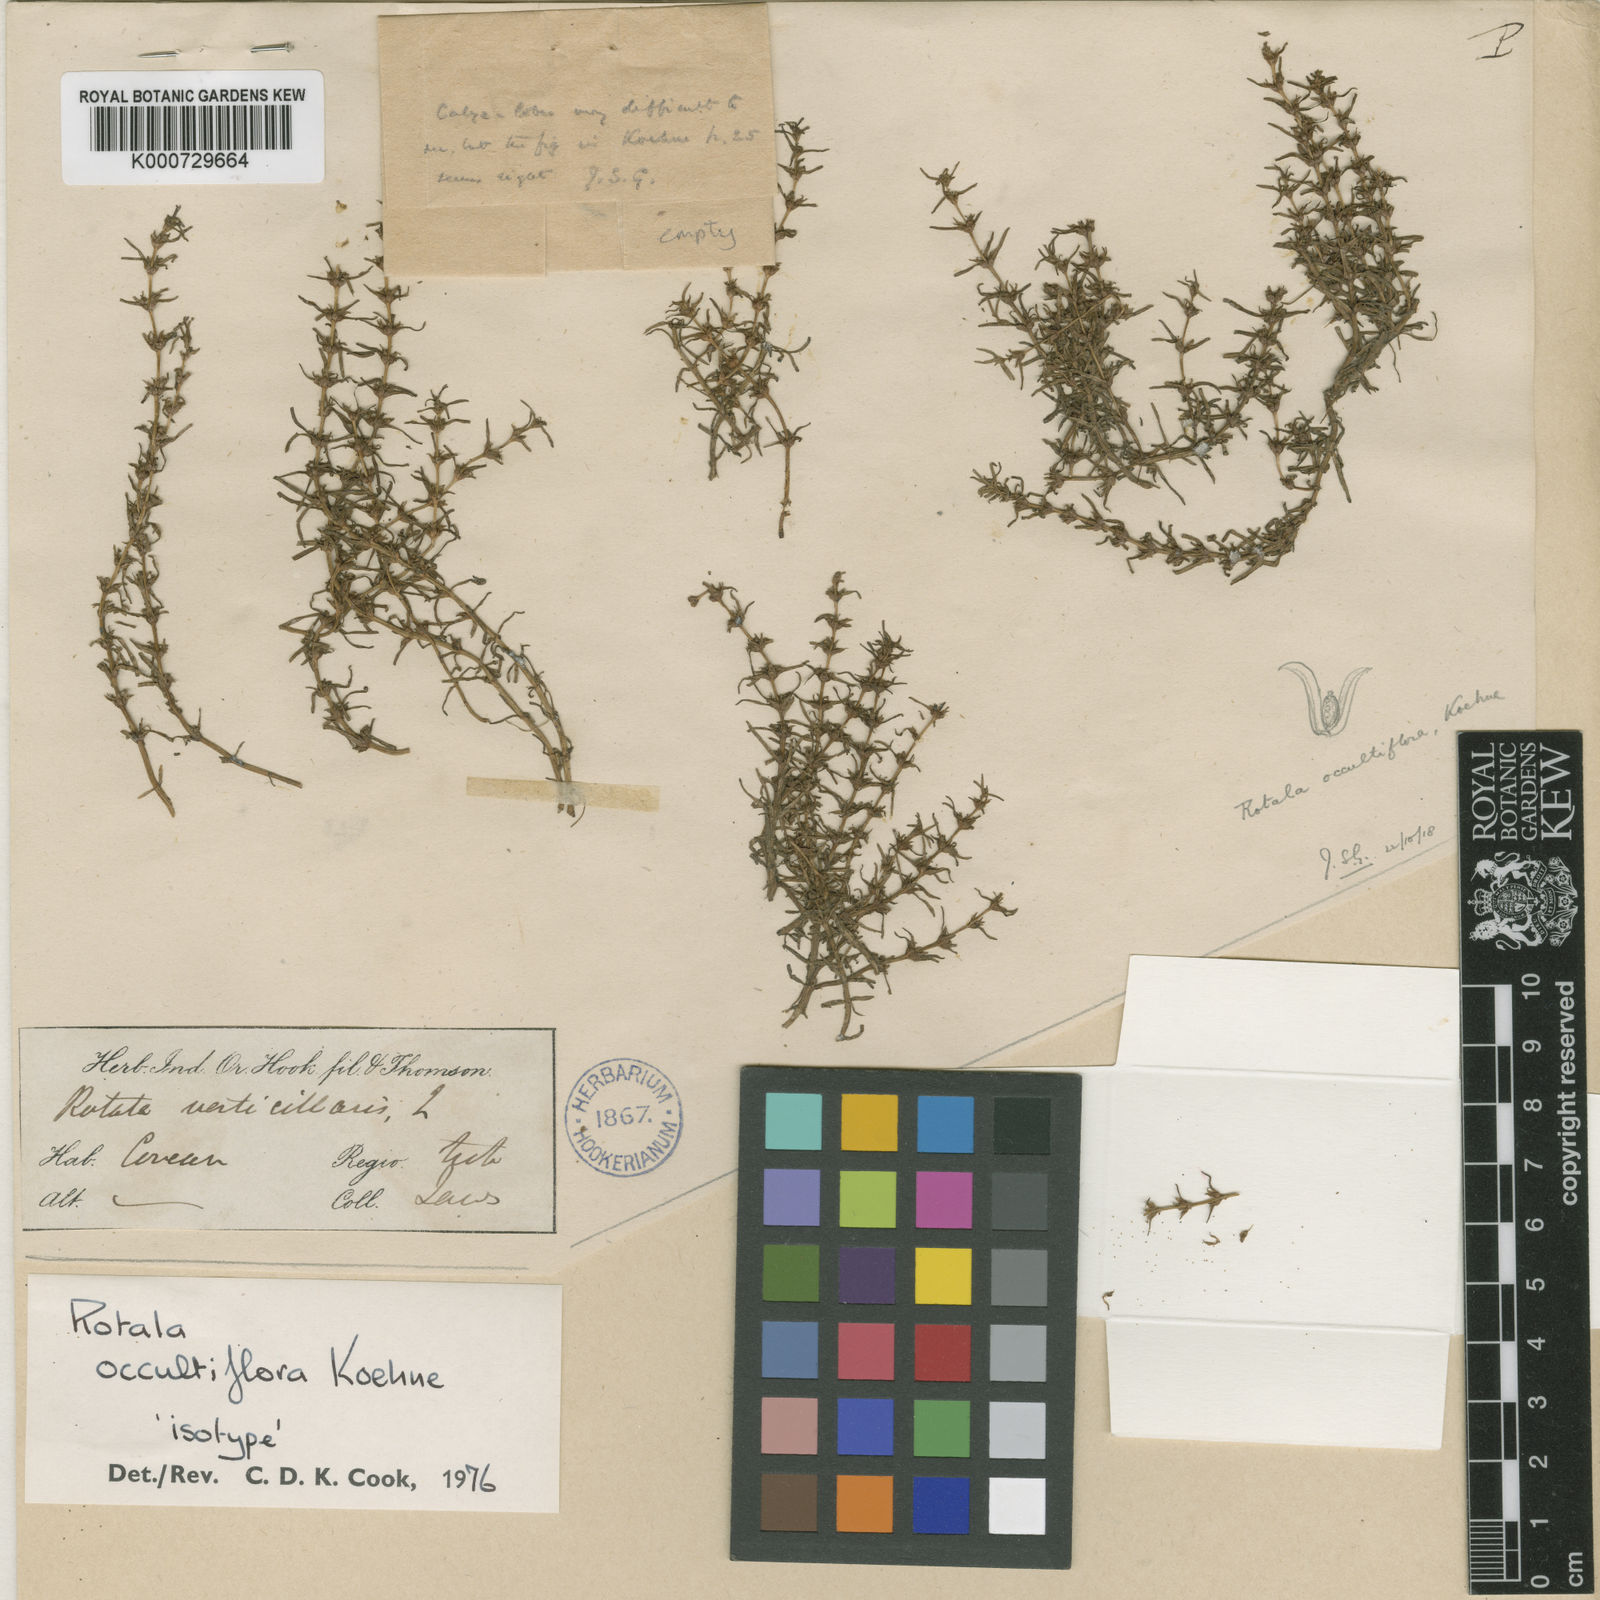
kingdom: Plantae
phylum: Tracheophyta
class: Magnoliopsida
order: Myrtales
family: Lythraceae
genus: Rotala
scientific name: Rotala occultiflora
